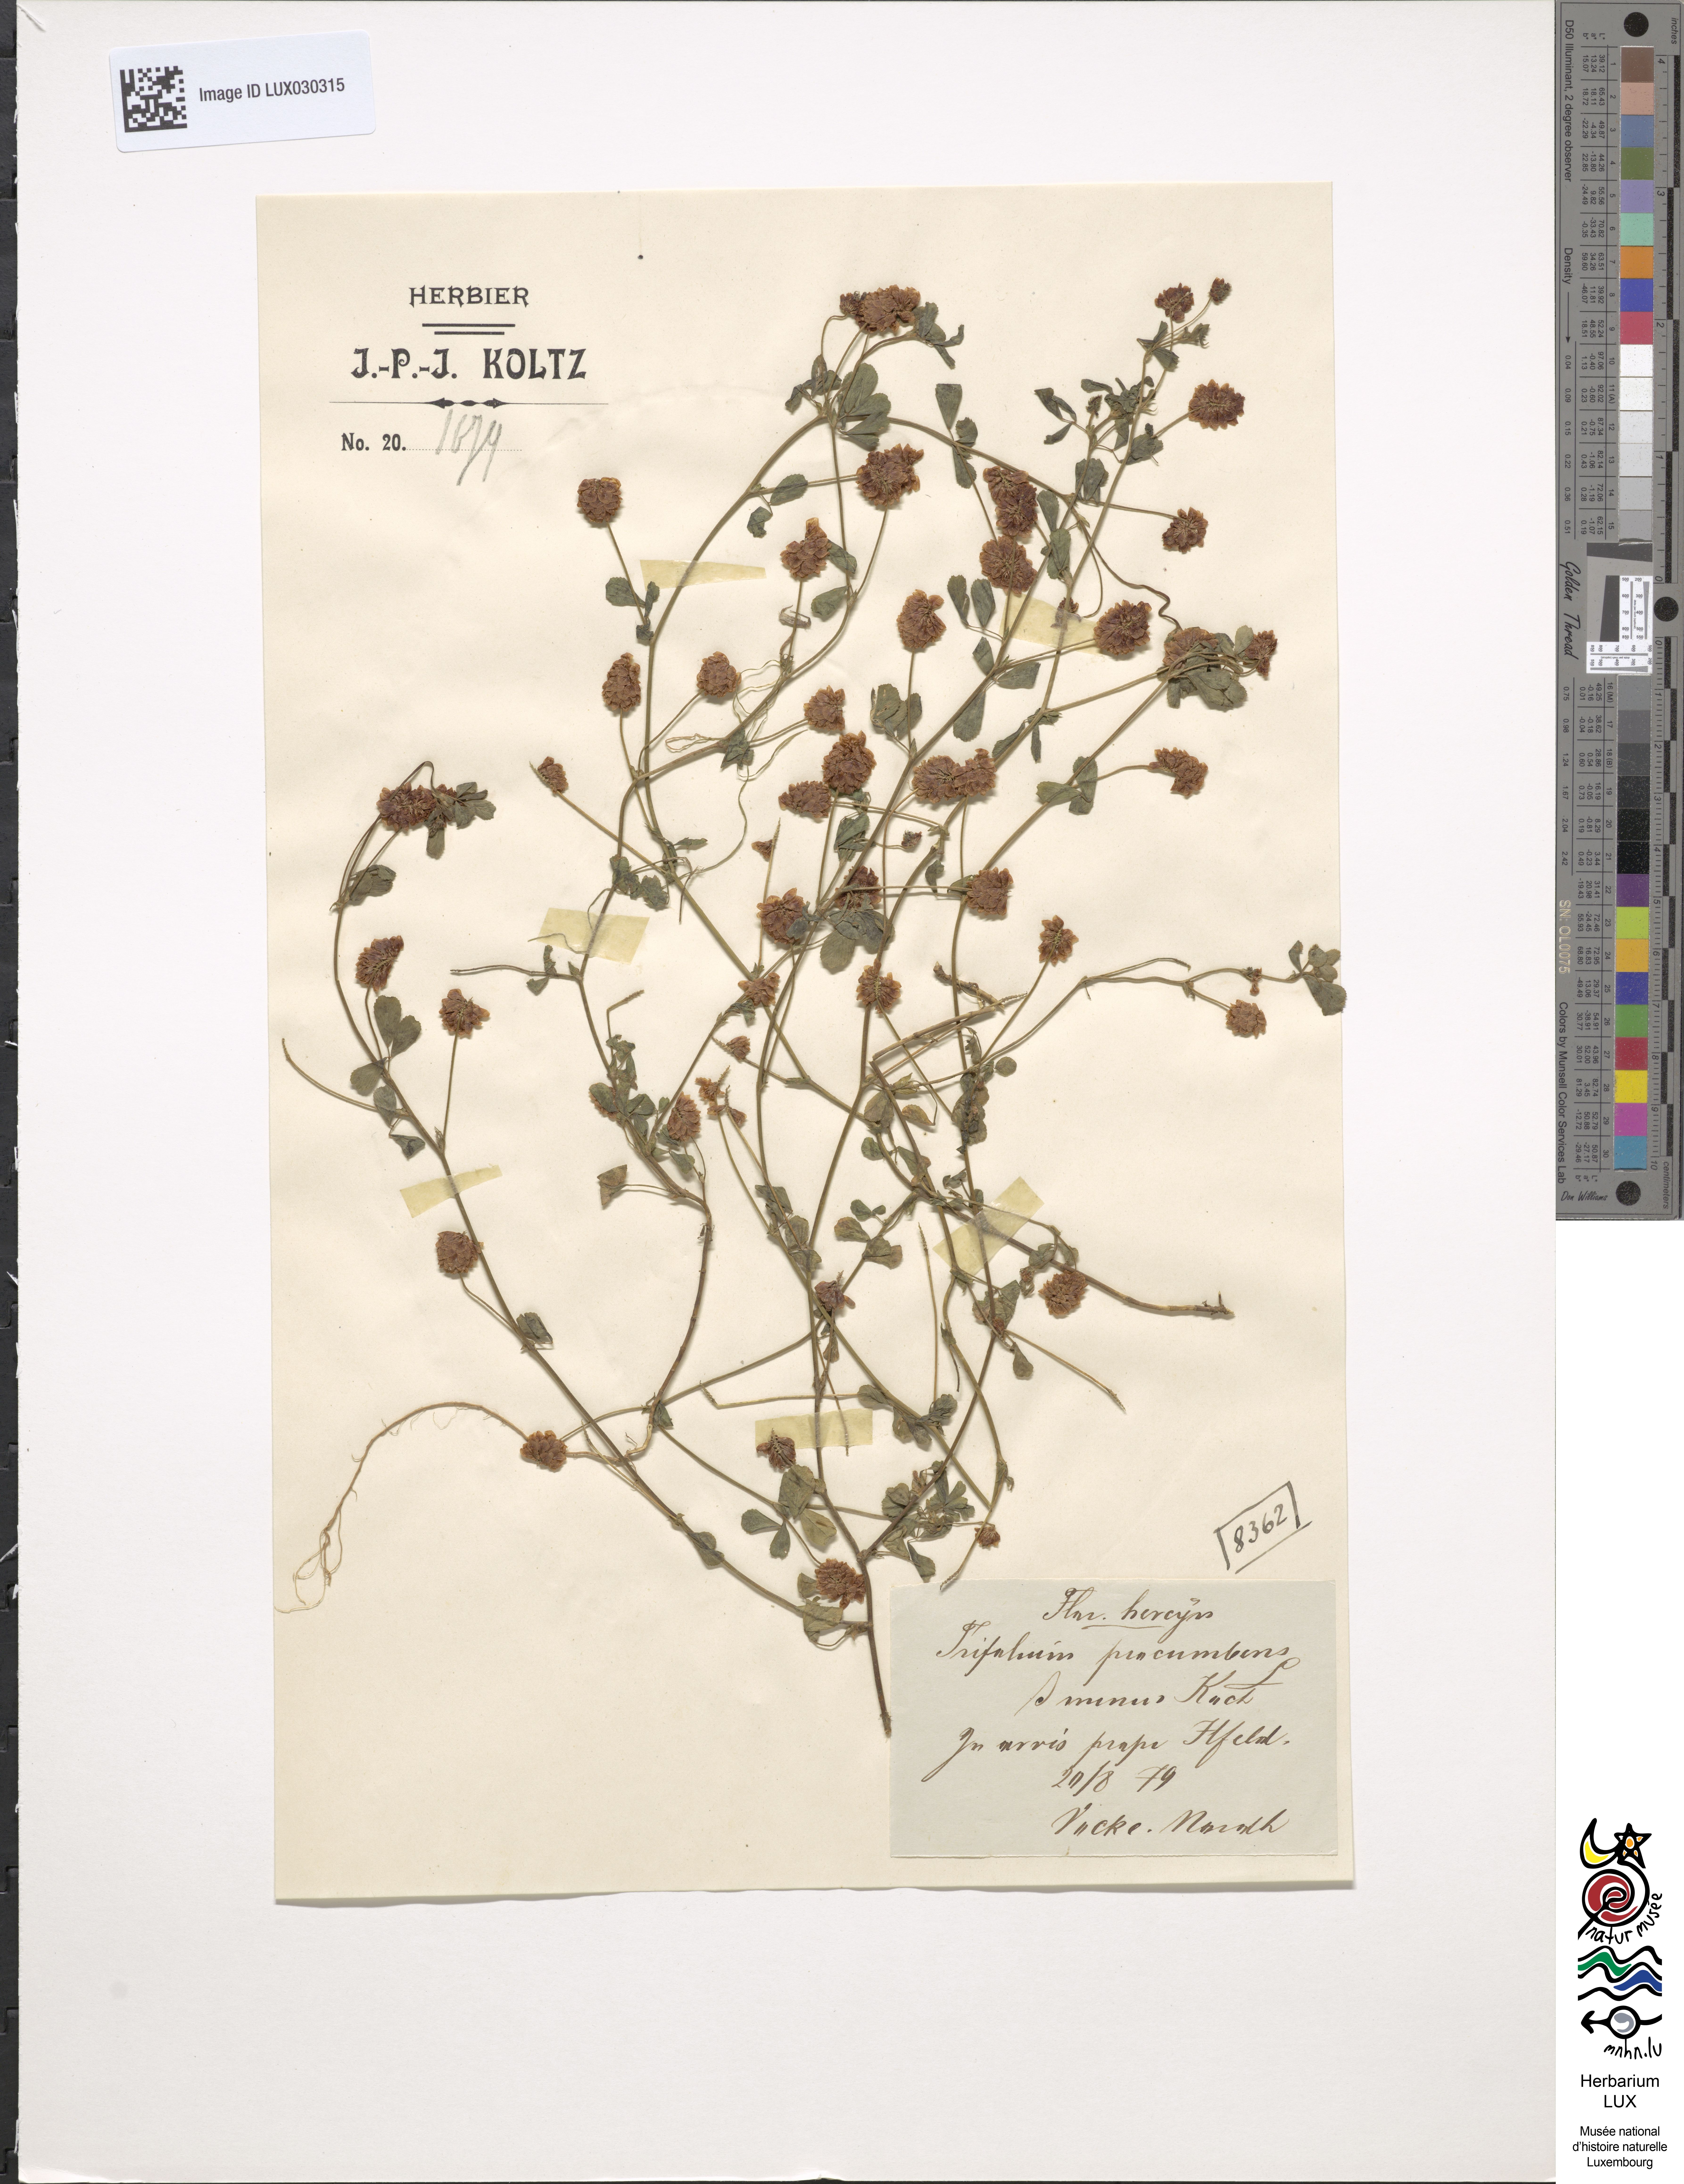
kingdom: Plantae
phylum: Tracheophyta
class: Magnoliopsida
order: Fabales
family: Fabaceae
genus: Trifolium
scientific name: Trifolium campestre
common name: Field clover
